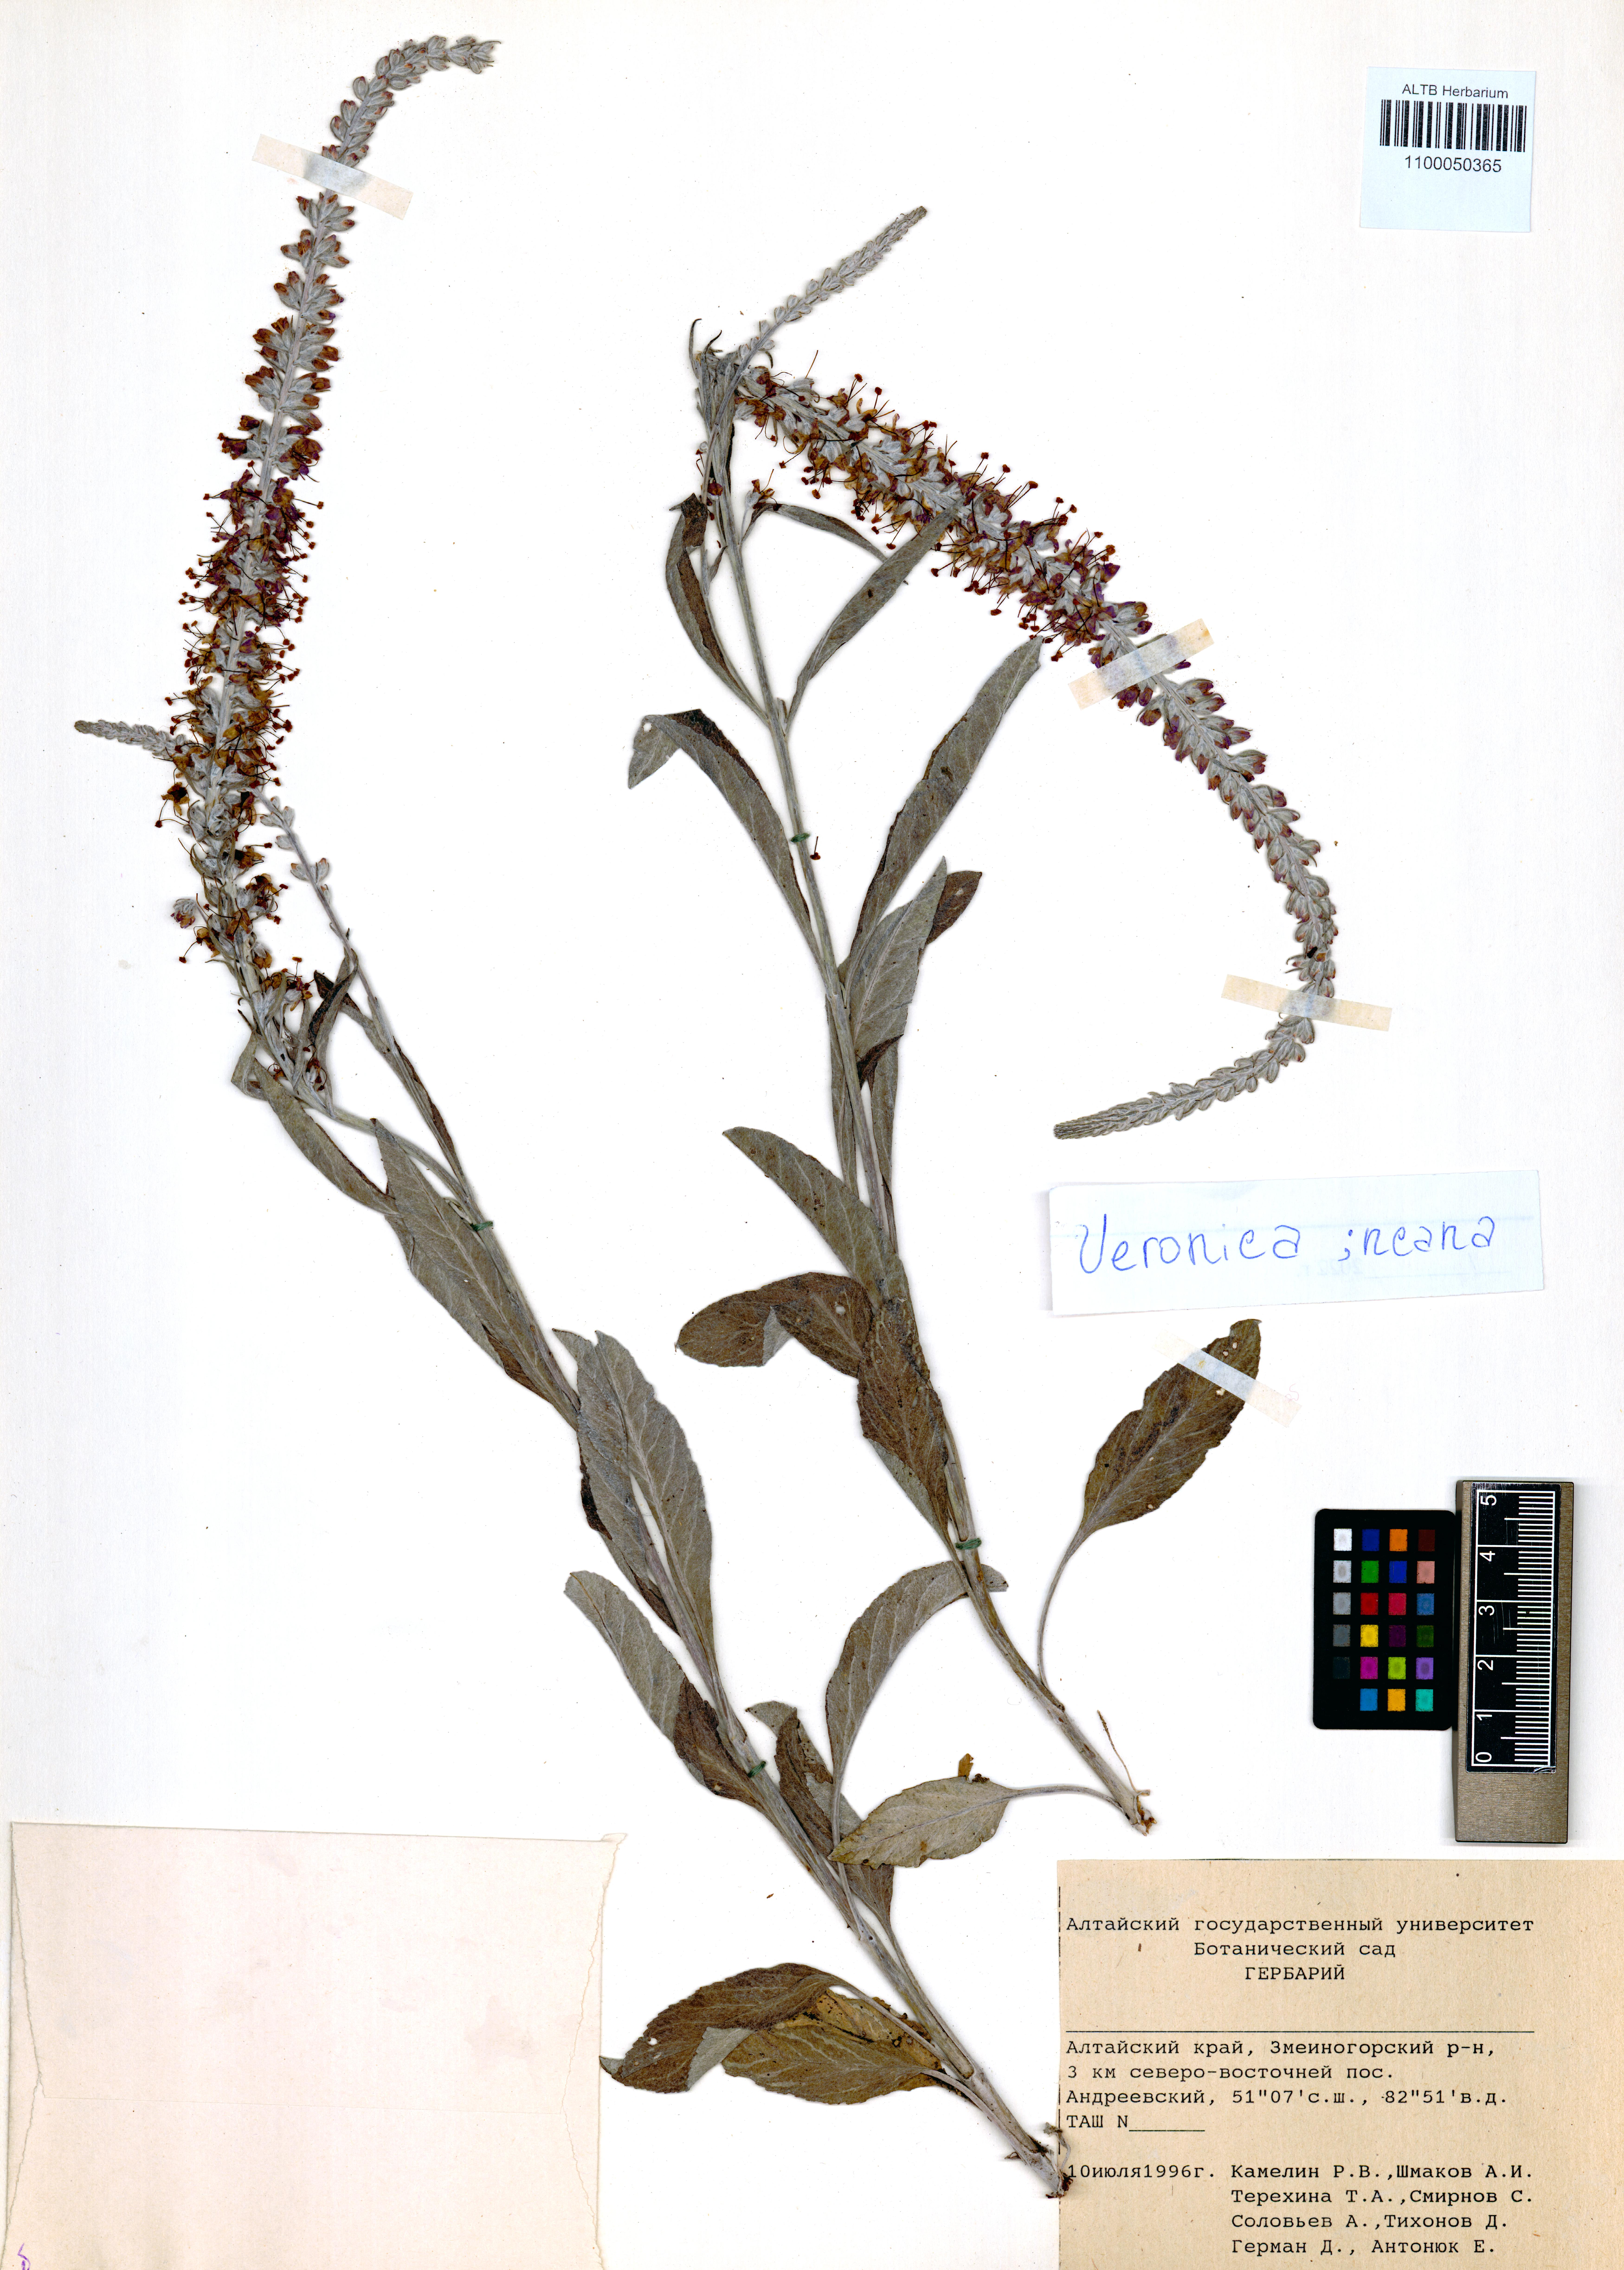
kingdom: Plantae
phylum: Tracheophyta
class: Magnoliopsida
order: Lamiales
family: Plantaginaceae
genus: Veronica
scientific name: Veronica incana
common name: Silver speedwell
